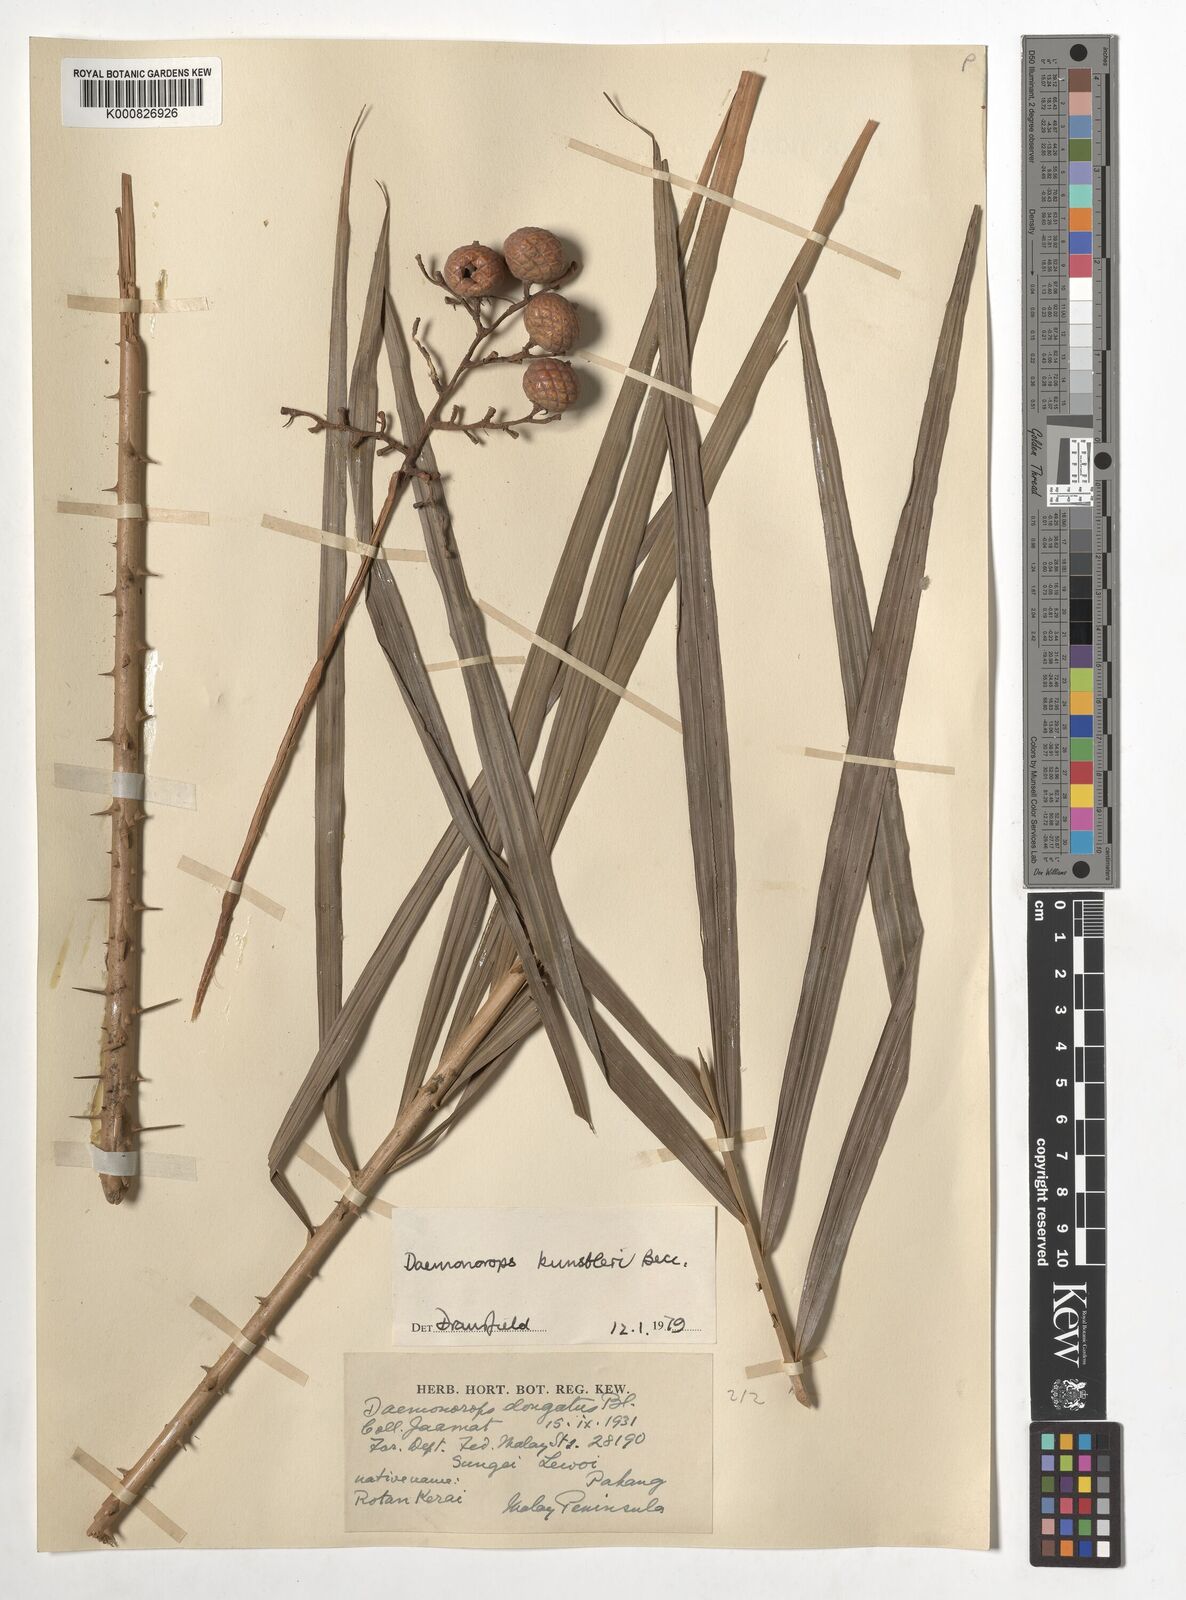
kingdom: Plantae
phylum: Tracheophyta
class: Liliopsida
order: Arecales
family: Arecaceae
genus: Calamus
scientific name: Calamus kunstleri
